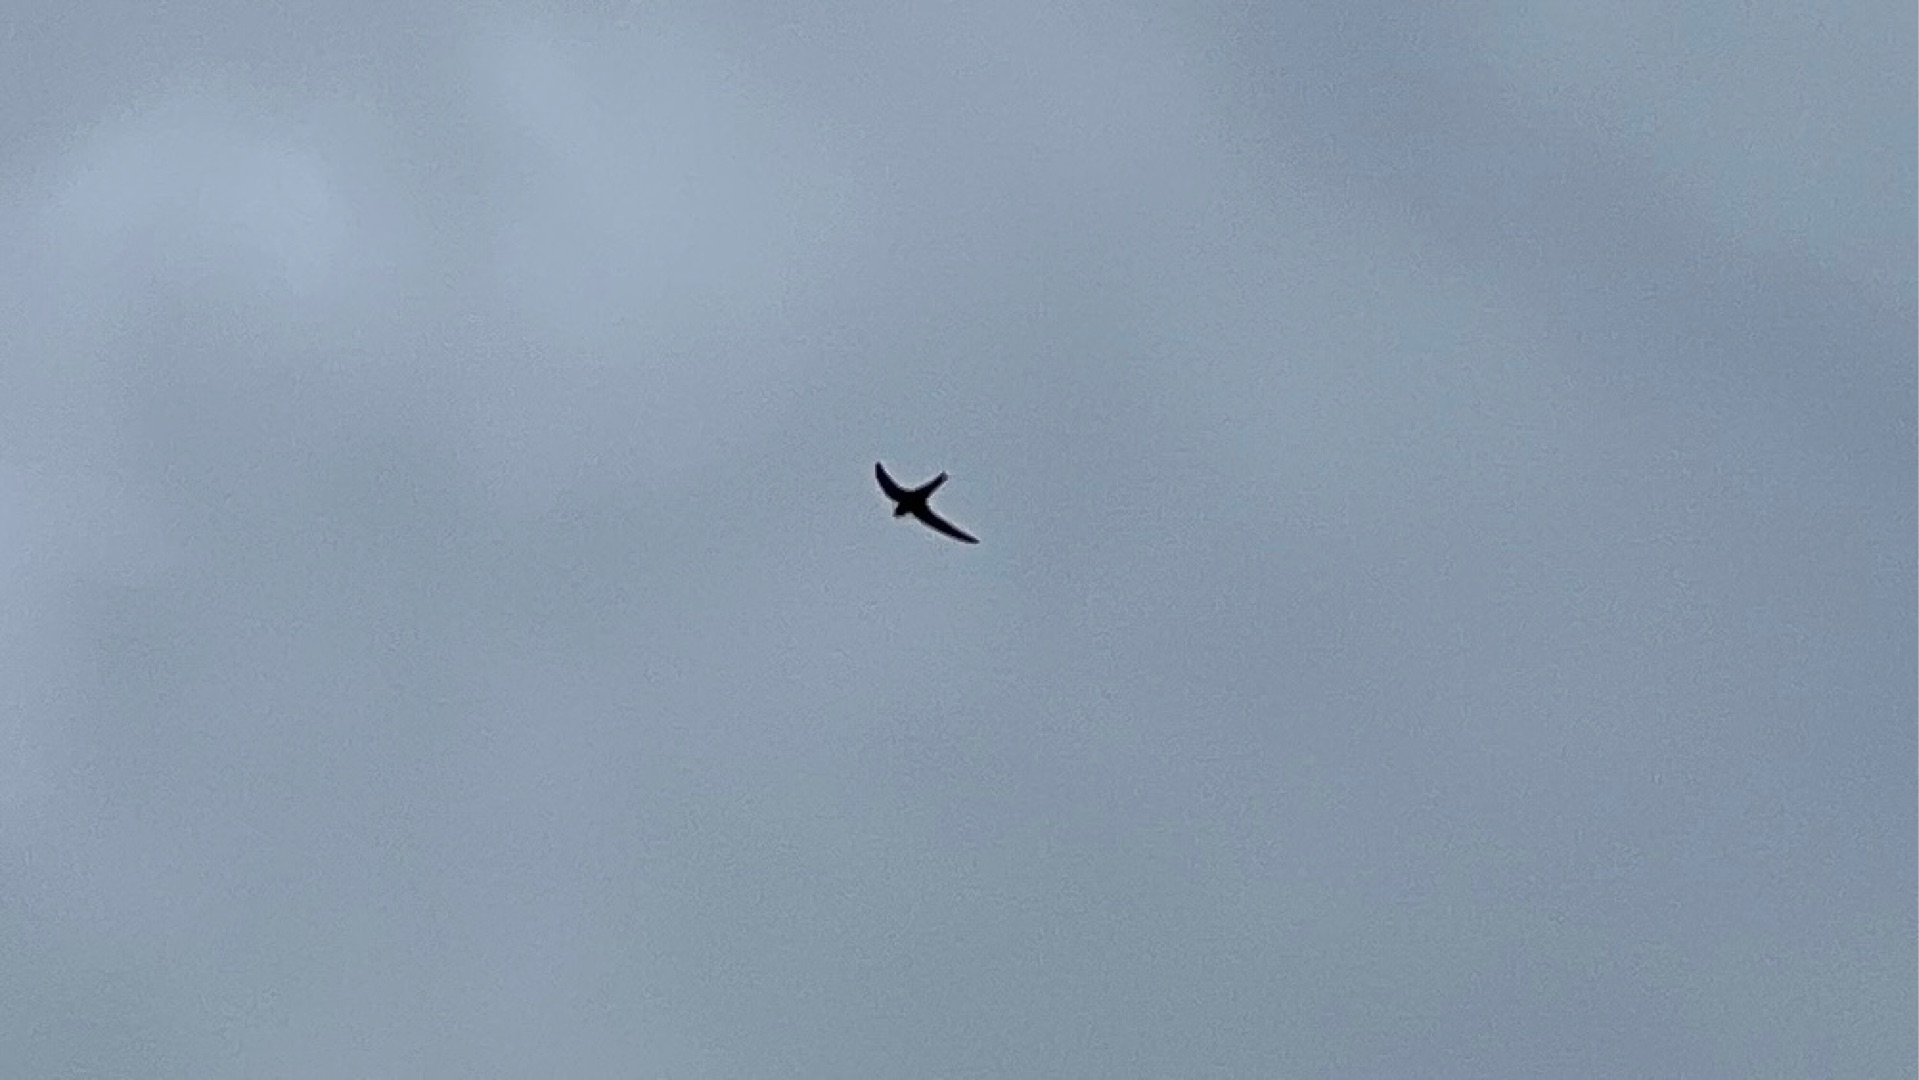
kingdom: Animalia
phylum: Chordata
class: Aves
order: Apodiformes
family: Apodidae
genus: Apus
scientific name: Apus apus
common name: Mursejler
